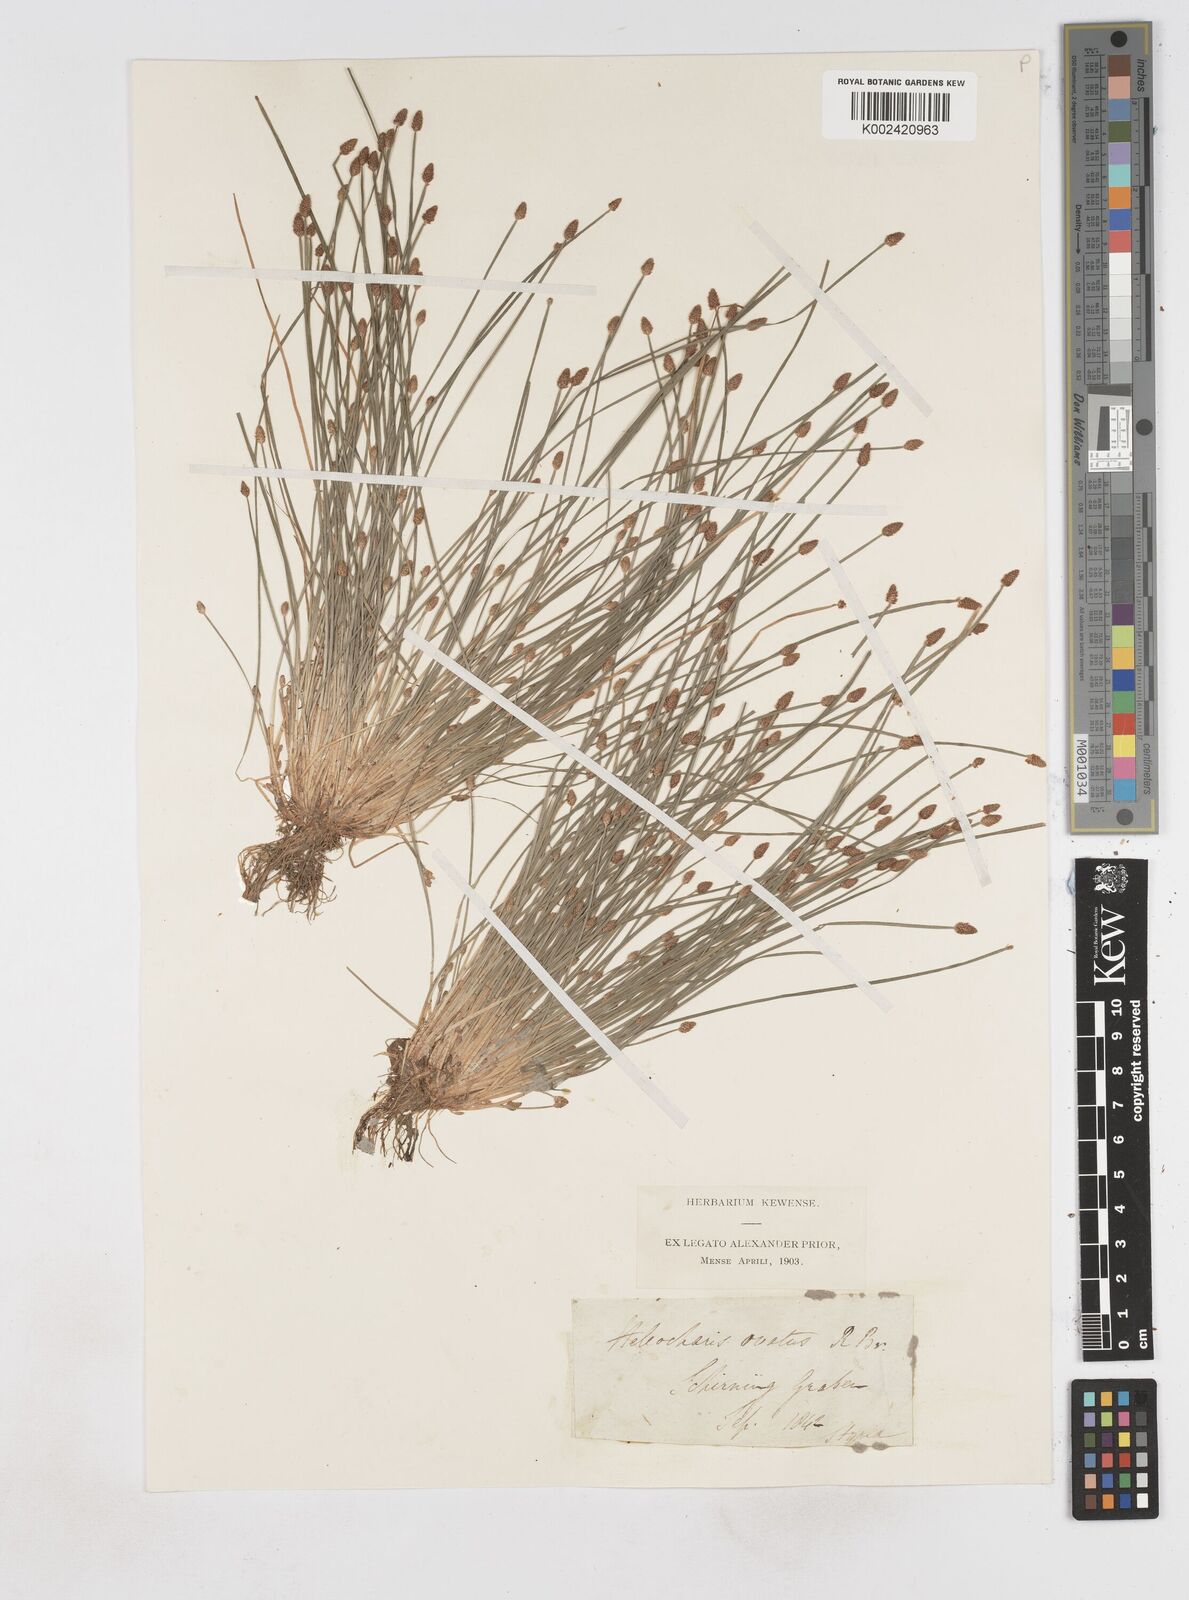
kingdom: Plantae
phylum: Tracheophyta
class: Liliopsida
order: Poales
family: Cyperaceae
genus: Eleocharis
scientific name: Eleocharis ovata
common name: Oval spike-rush
